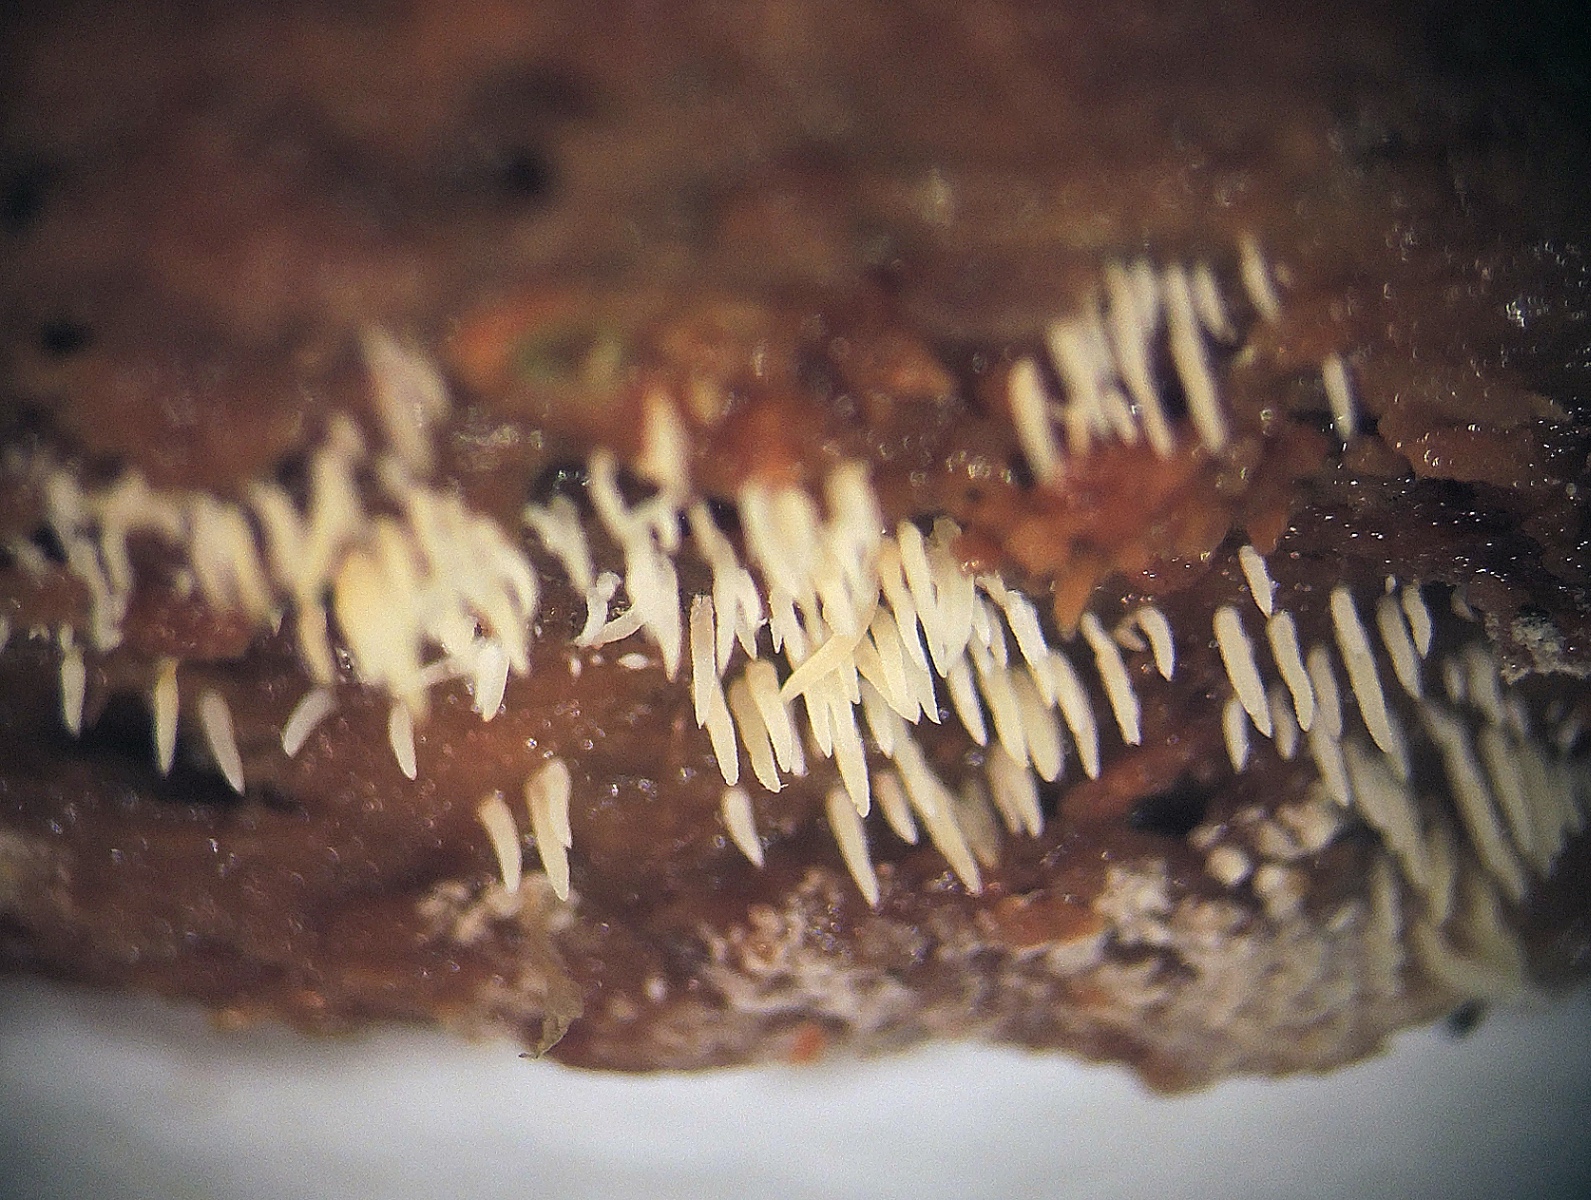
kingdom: Fungi
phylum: Basidiomycota
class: Agaricomycetes
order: Agaricales
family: Clavariaceae
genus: Mucronella
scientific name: Mucronella flava
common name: gul hængepig
